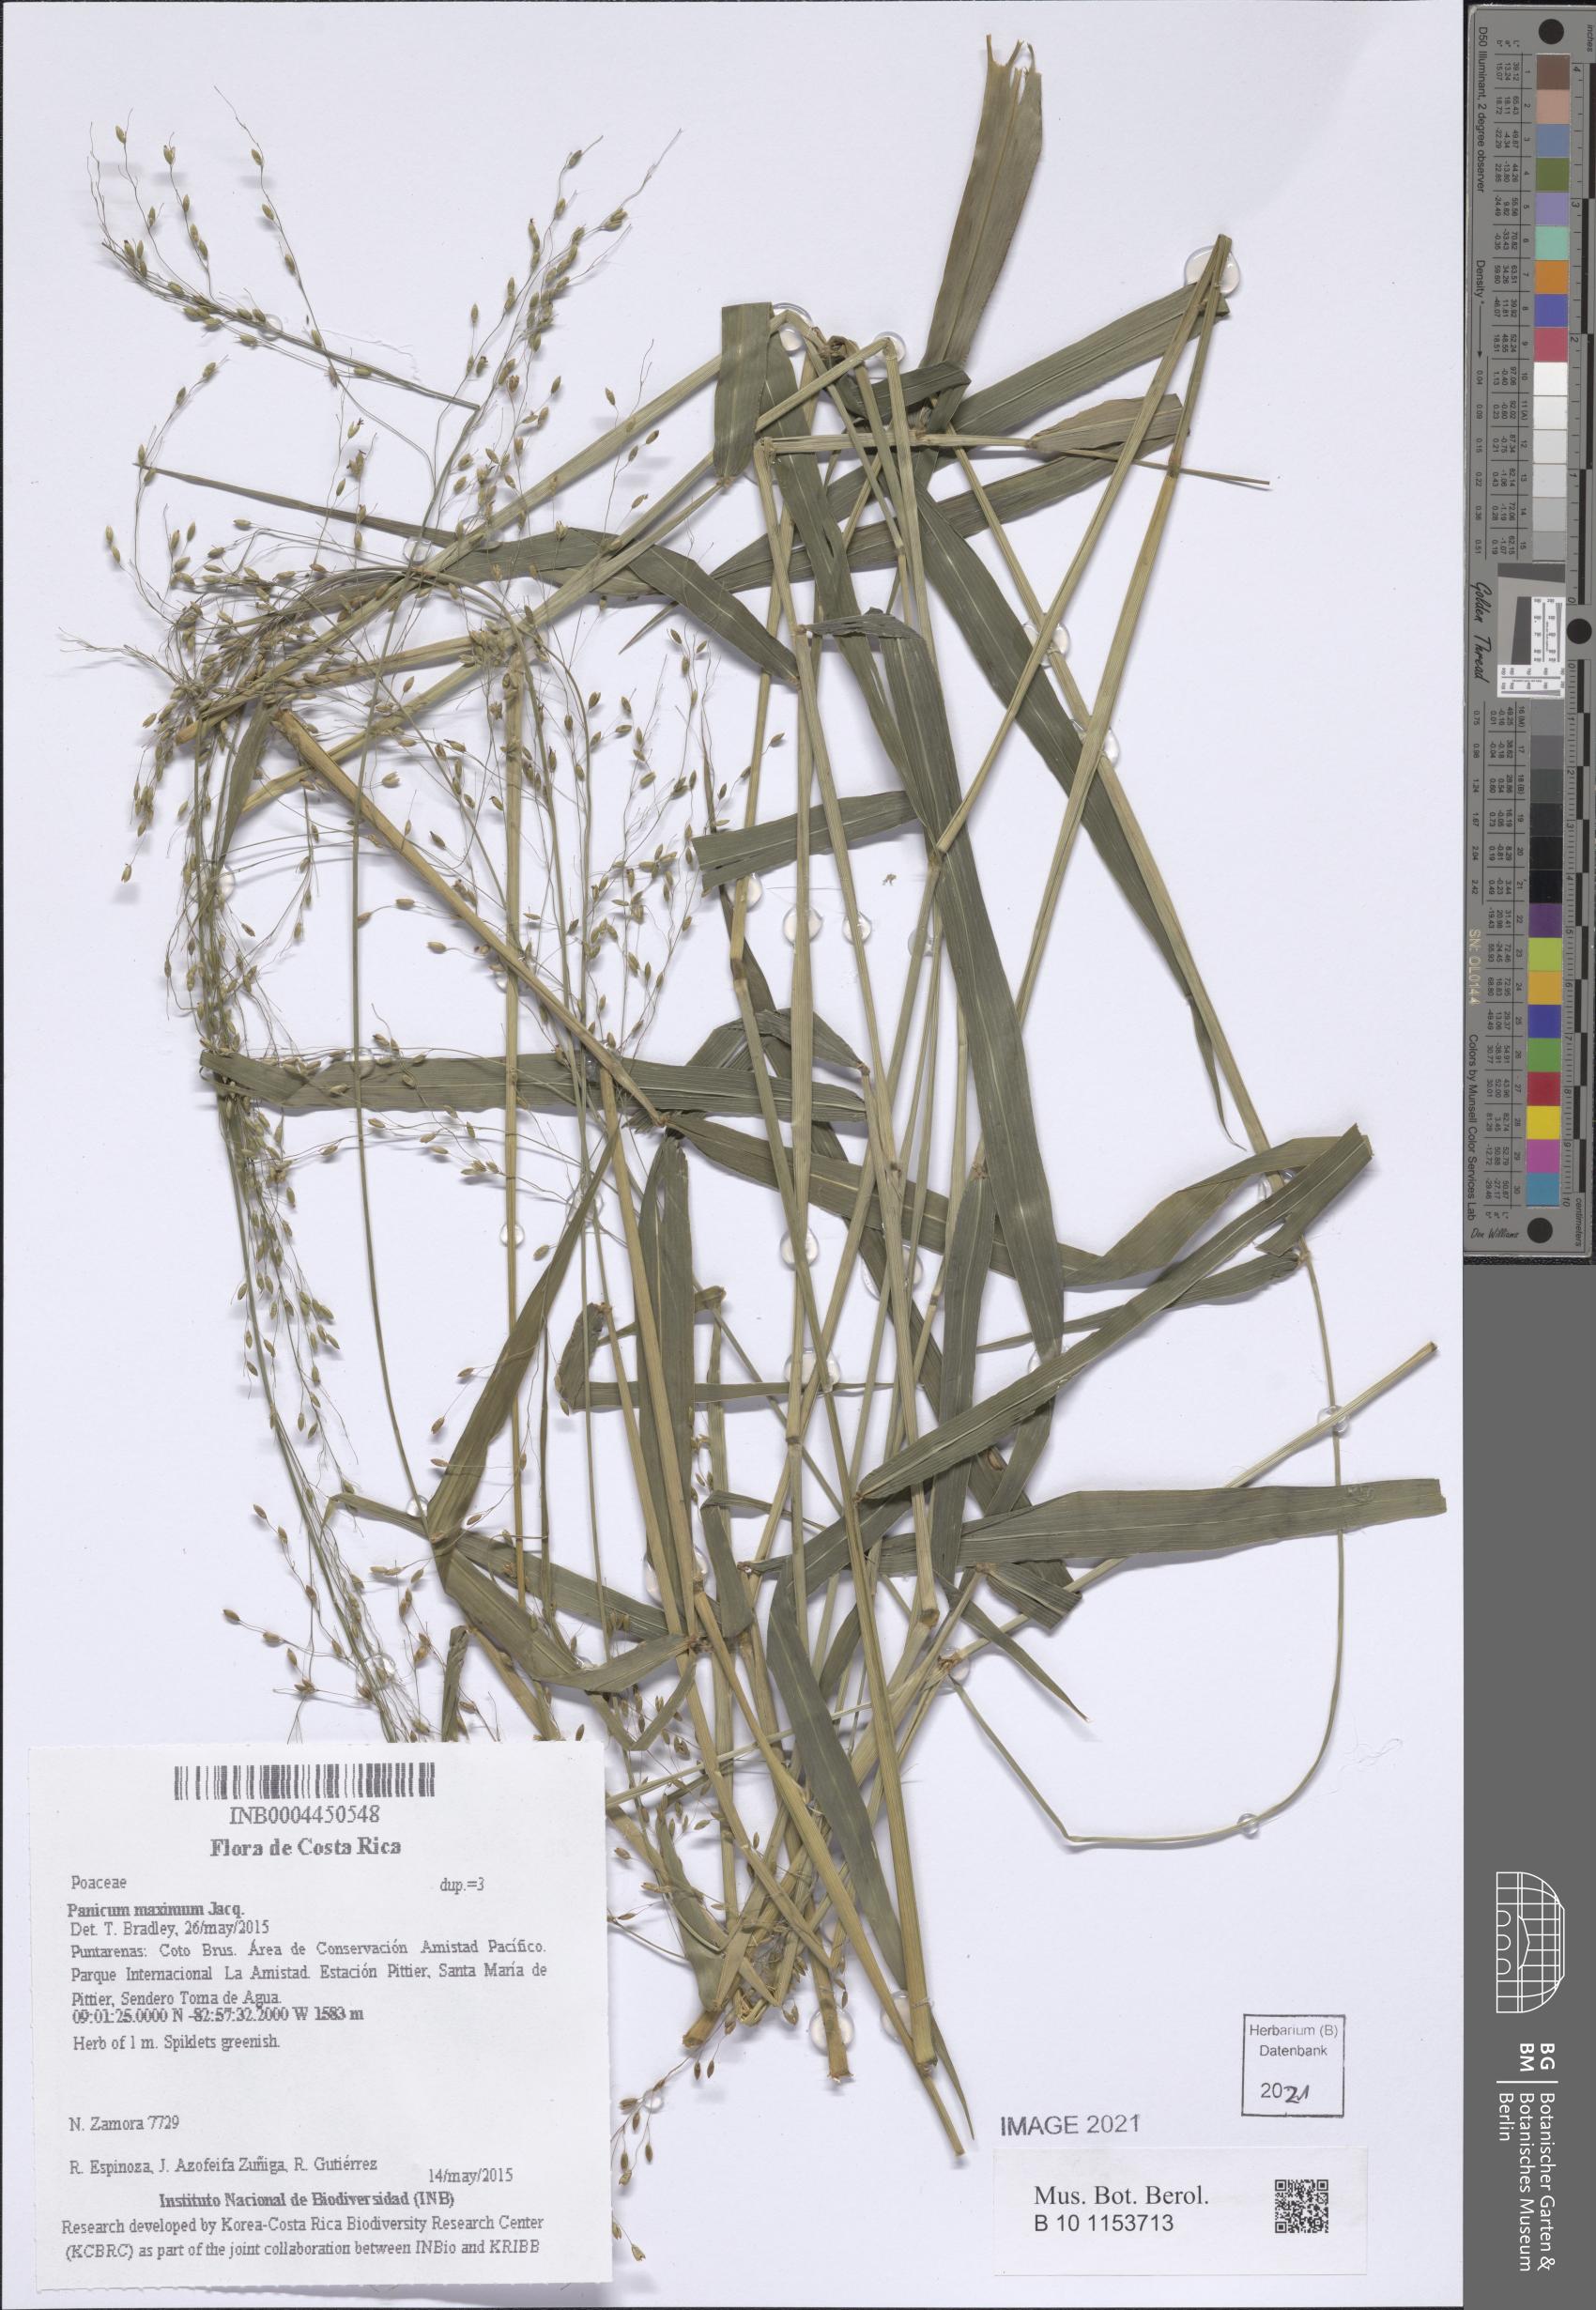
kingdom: Plantae
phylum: Tracheophyta
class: Liliopsida
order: Poales
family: Poaceae
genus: Megathyrsus
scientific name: Megathyrsus maximus
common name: Guineagrass
